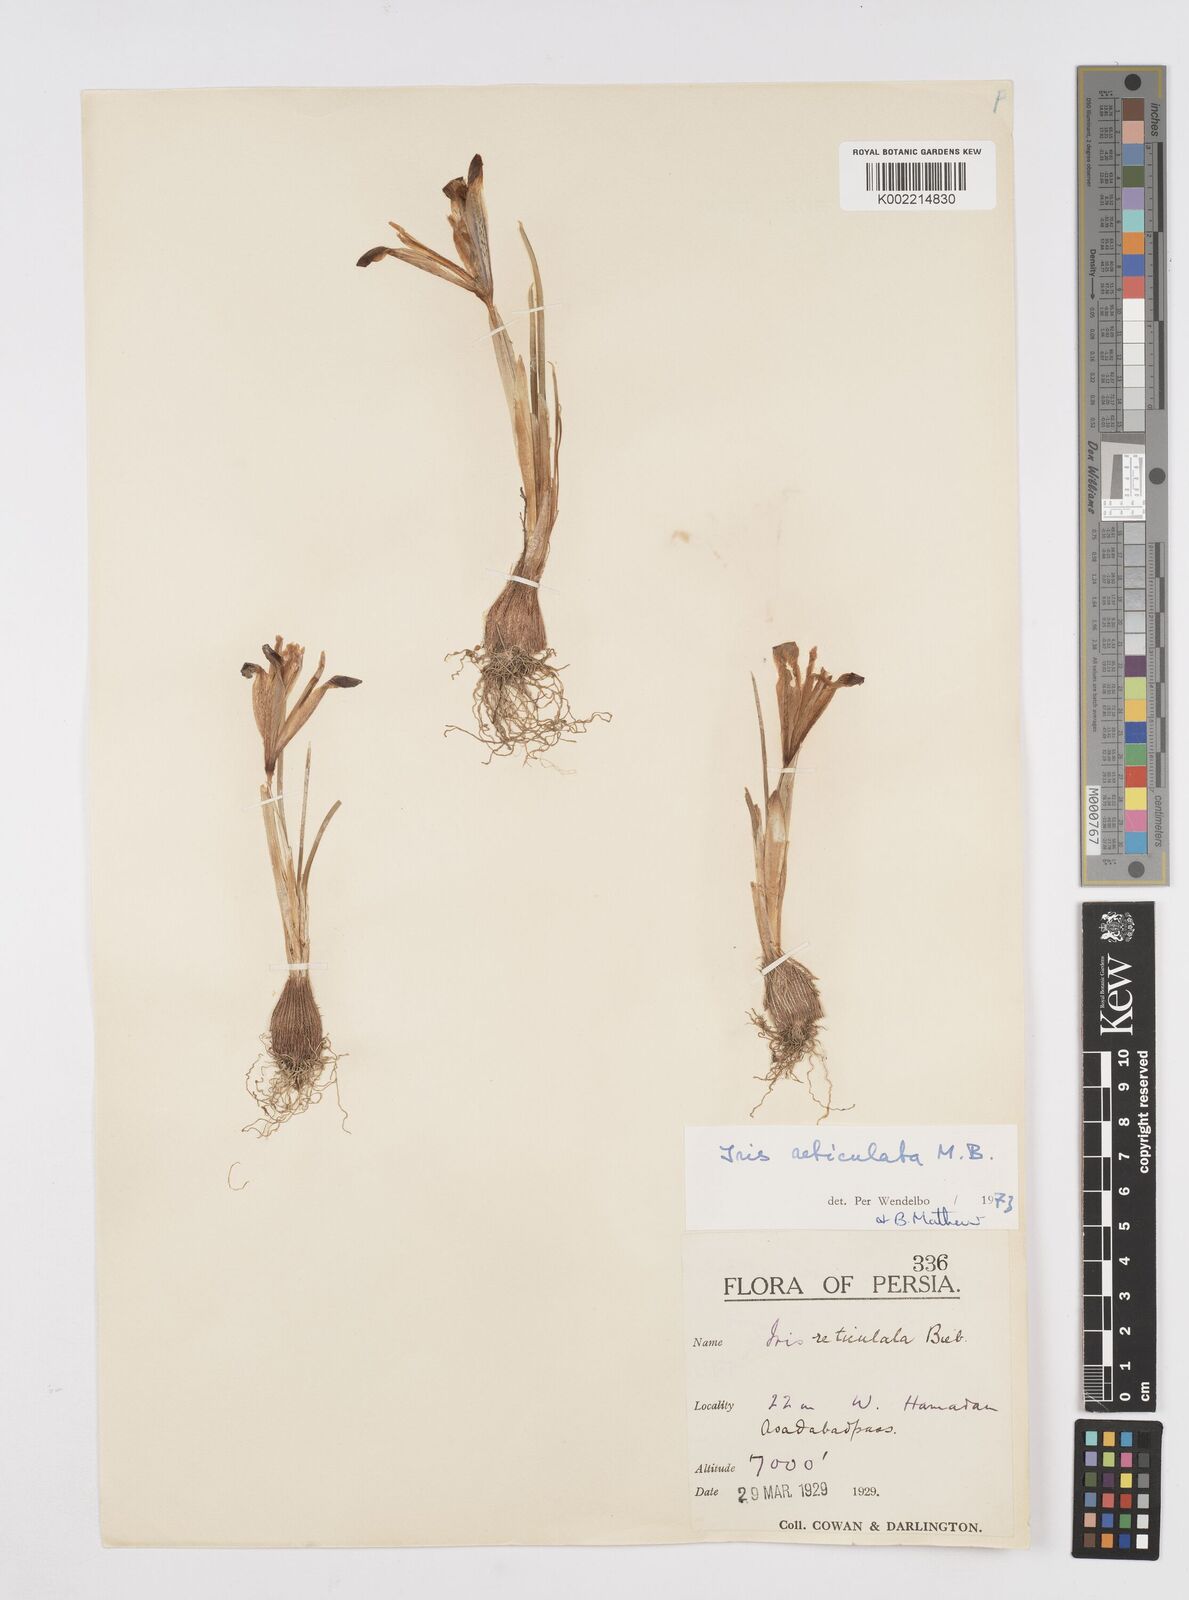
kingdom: Plantae
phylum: Tracheophyta
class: Liliopsida
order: Asparagales
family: Iridaceae
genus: Iris
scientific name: Iris reticulata
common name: Netted iris
